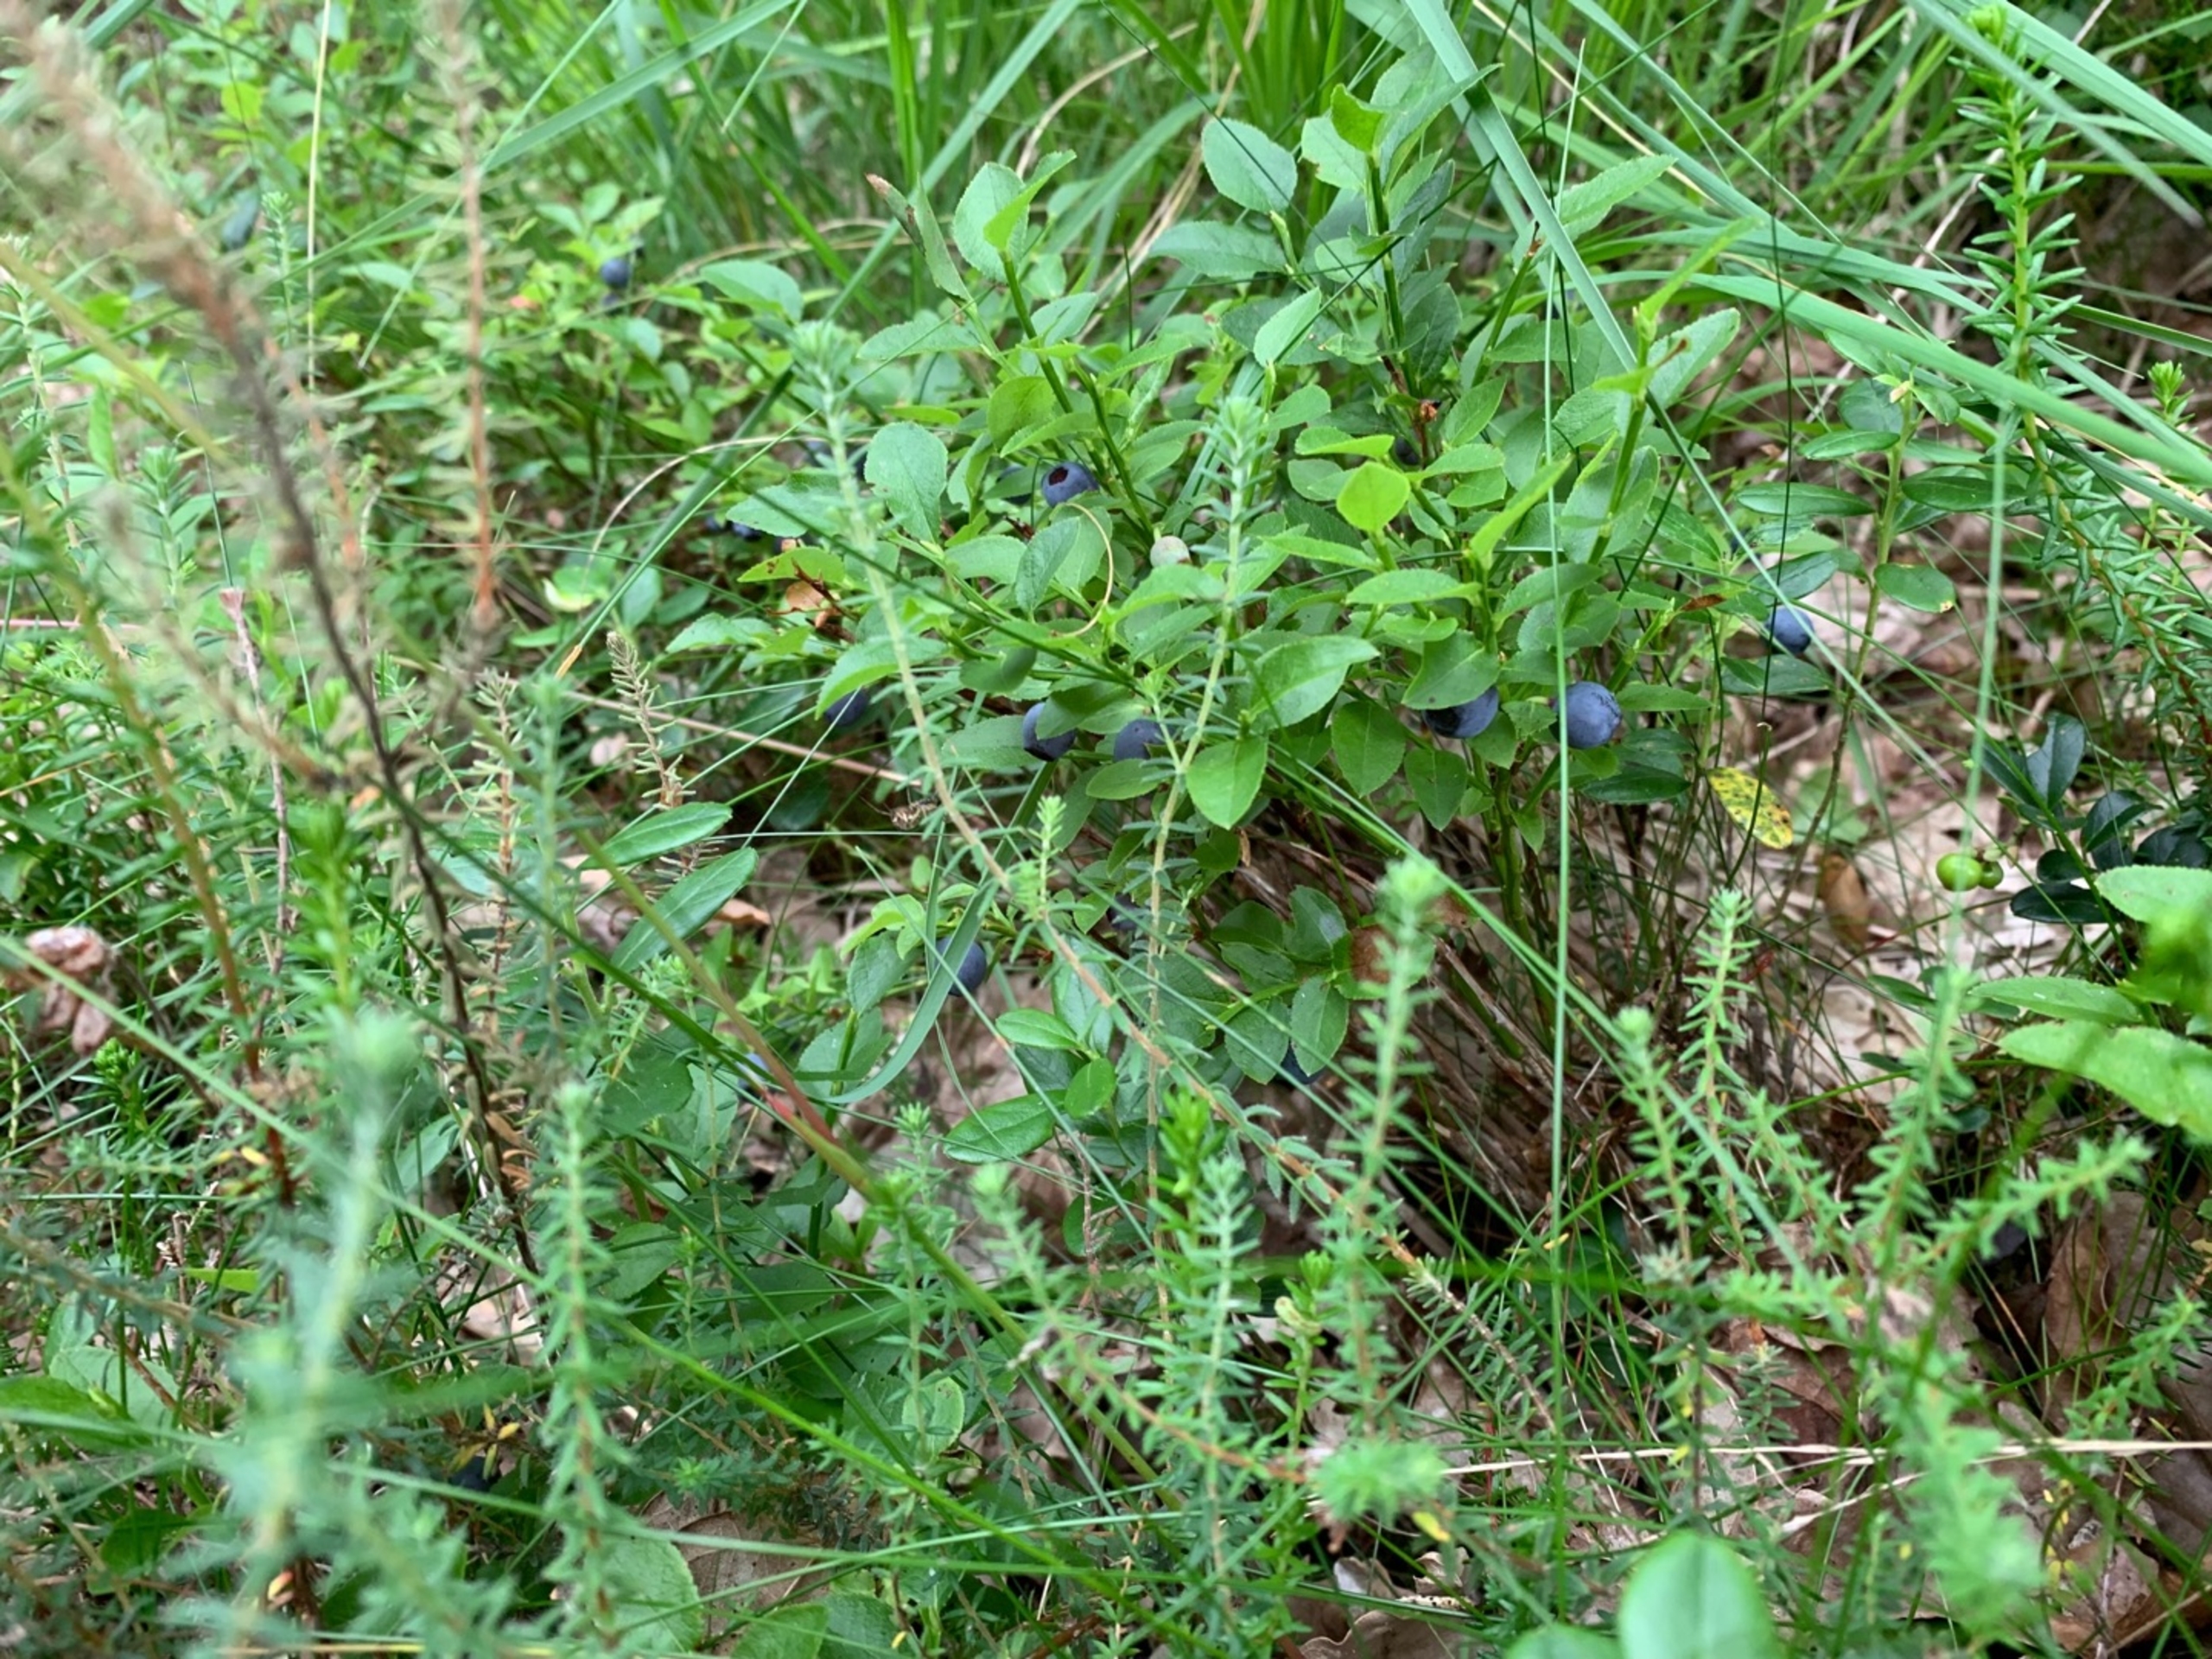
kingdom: Plantae
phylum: Tracheophyta
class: Magnoliopsida
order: Ericales
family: Ericaceae
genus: Vaccinium
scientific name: Vaccinium myrtillus
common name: Blåbær
